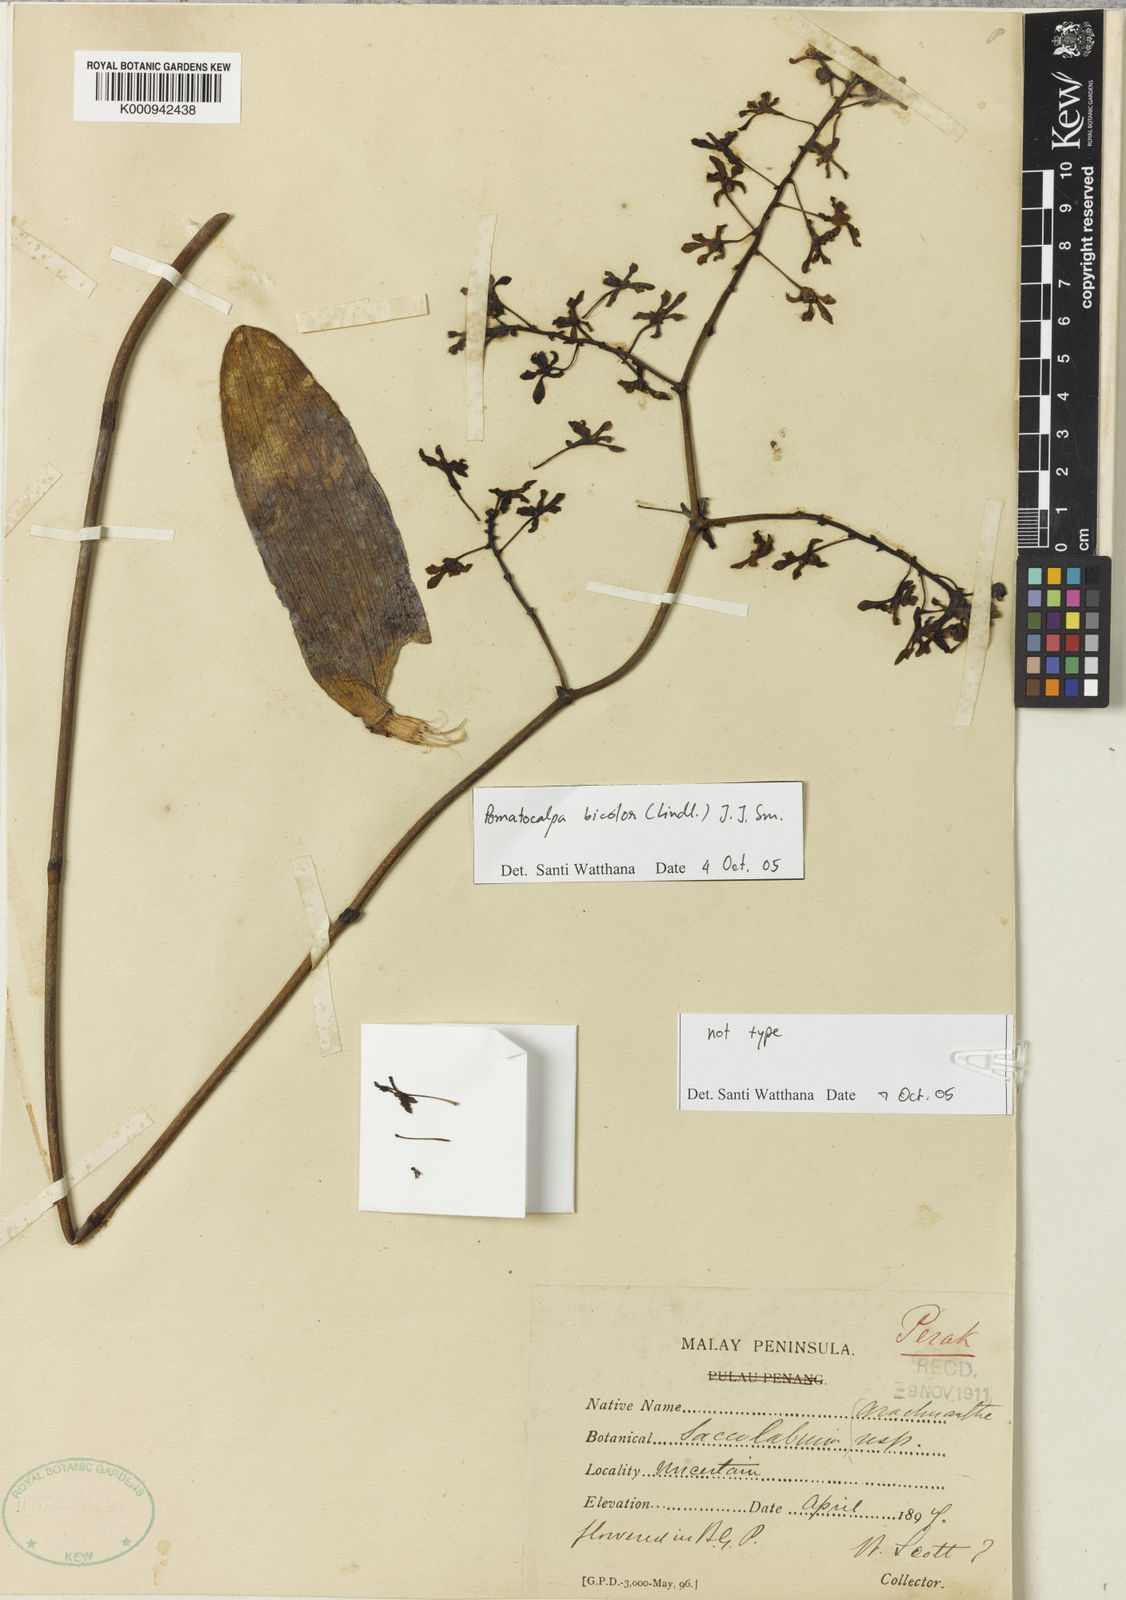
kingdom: Plantae
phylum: Tracheophyta
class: Liliopsida
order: Asparagales
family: Orchidaceae
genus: Pomatocalpa
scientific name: Pomatocalpa bicolor
